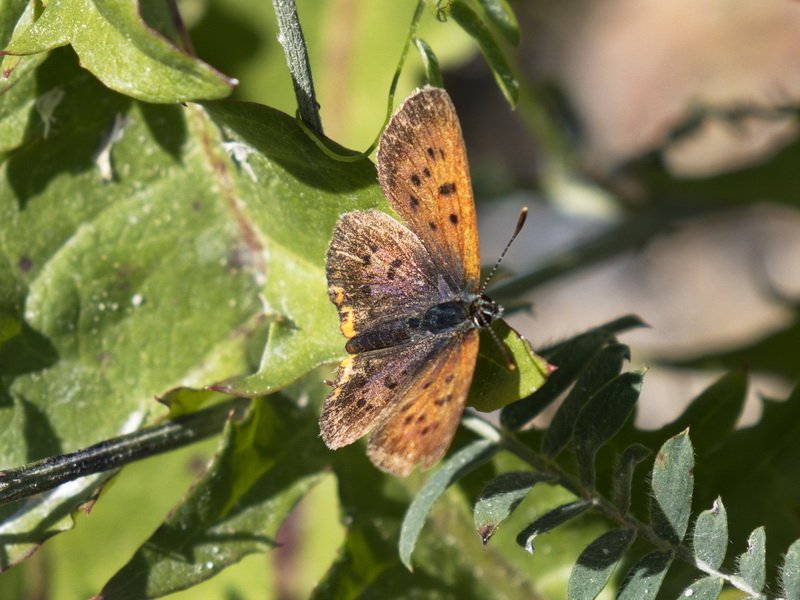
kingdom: Animalia
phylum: Arthropoda
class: Insecta
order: Lepidoptera
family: Lycaenidae
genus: Epidemia
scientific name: Epidemia dorcas
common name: Dorcas Copper
